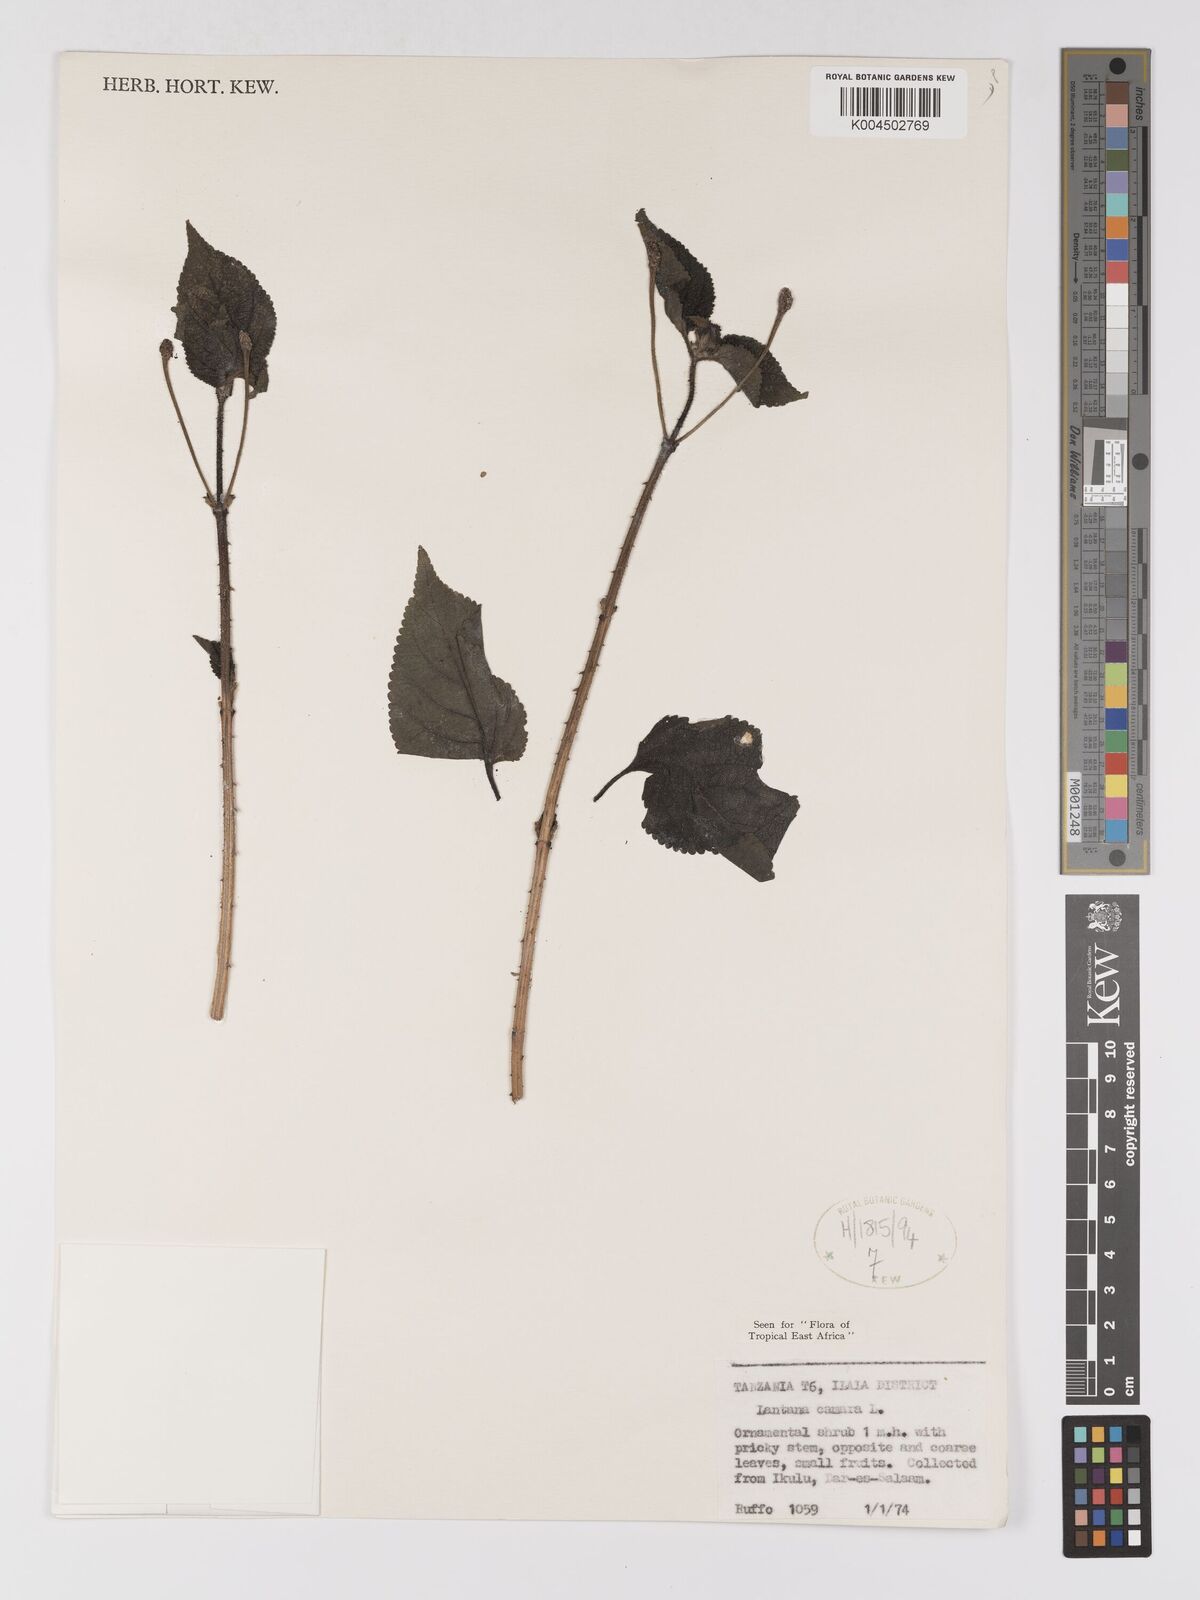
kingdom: Plantae
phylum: Tracheophyta
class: Magnoliopsida
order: Lamiales
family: Verbenaceae
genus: Lantana
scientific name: Lantana camara
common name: Lantana
